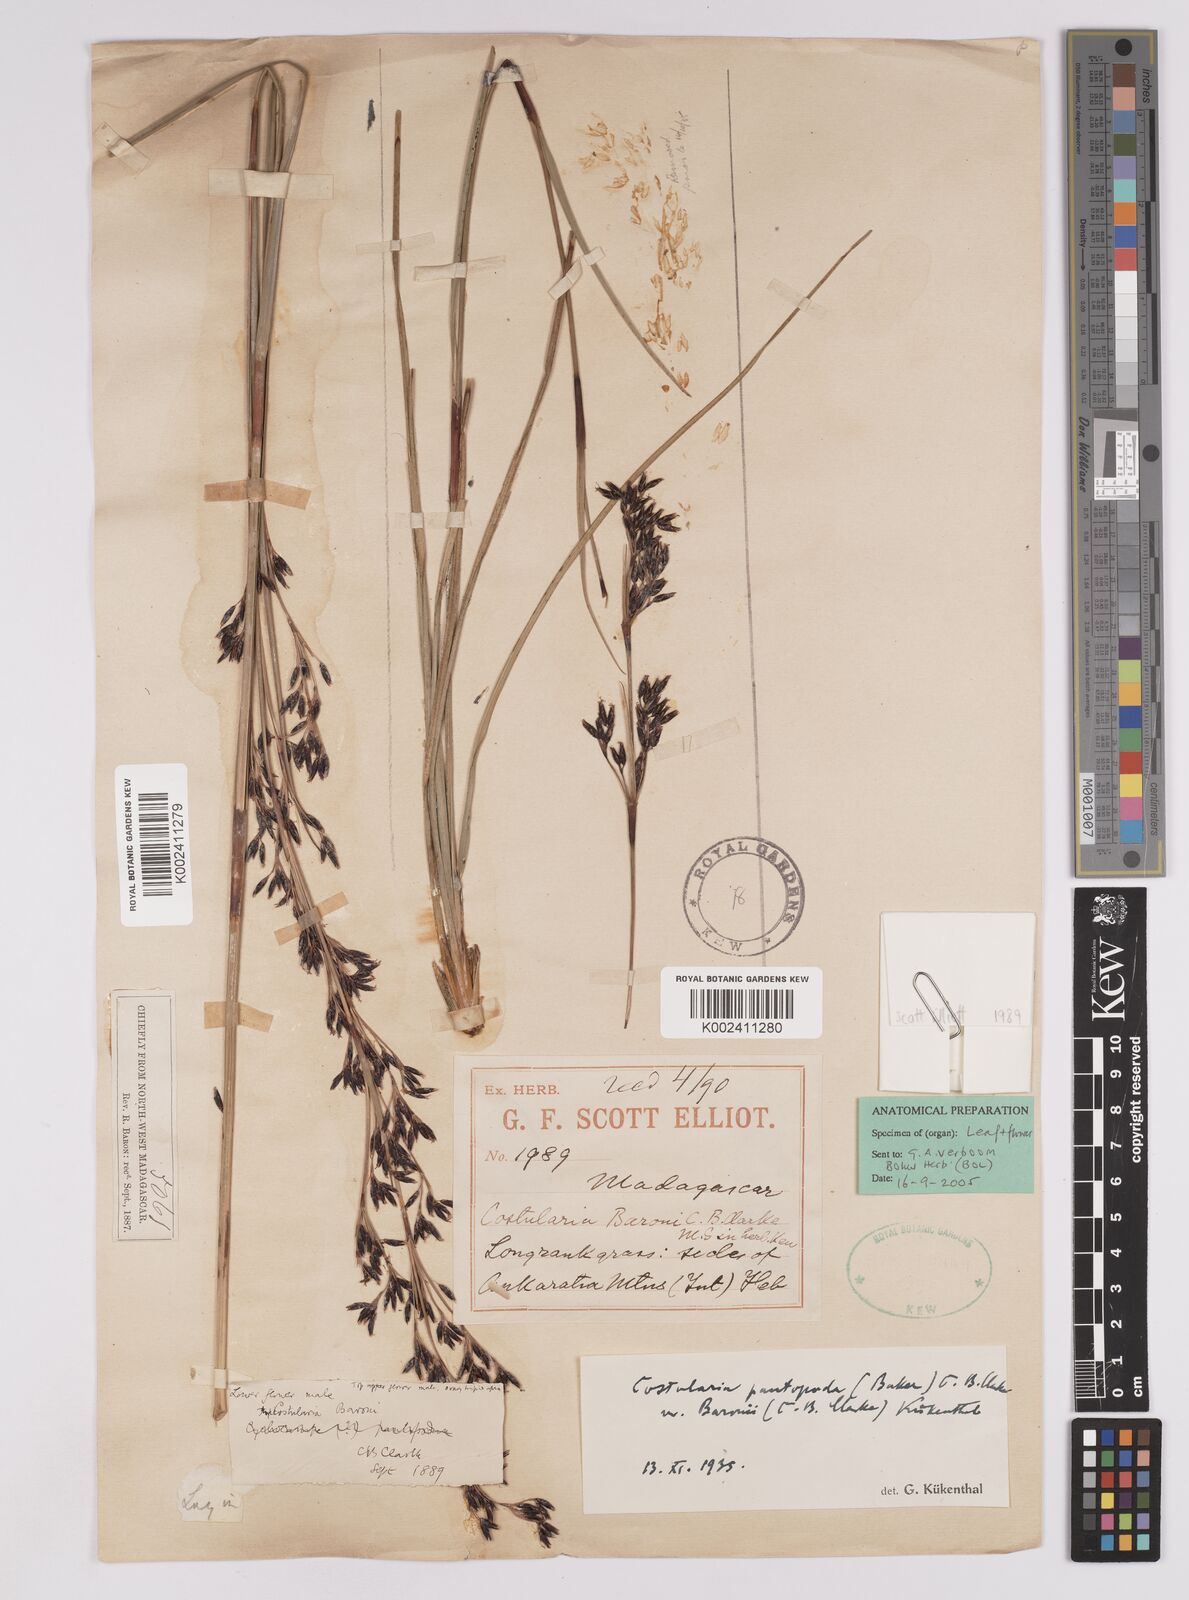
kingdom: Plantae
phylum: Tracheophyta
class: Liliopsida
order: Poales
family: Cyperaceae
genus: Costularia
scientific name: Costularia pantopoda
